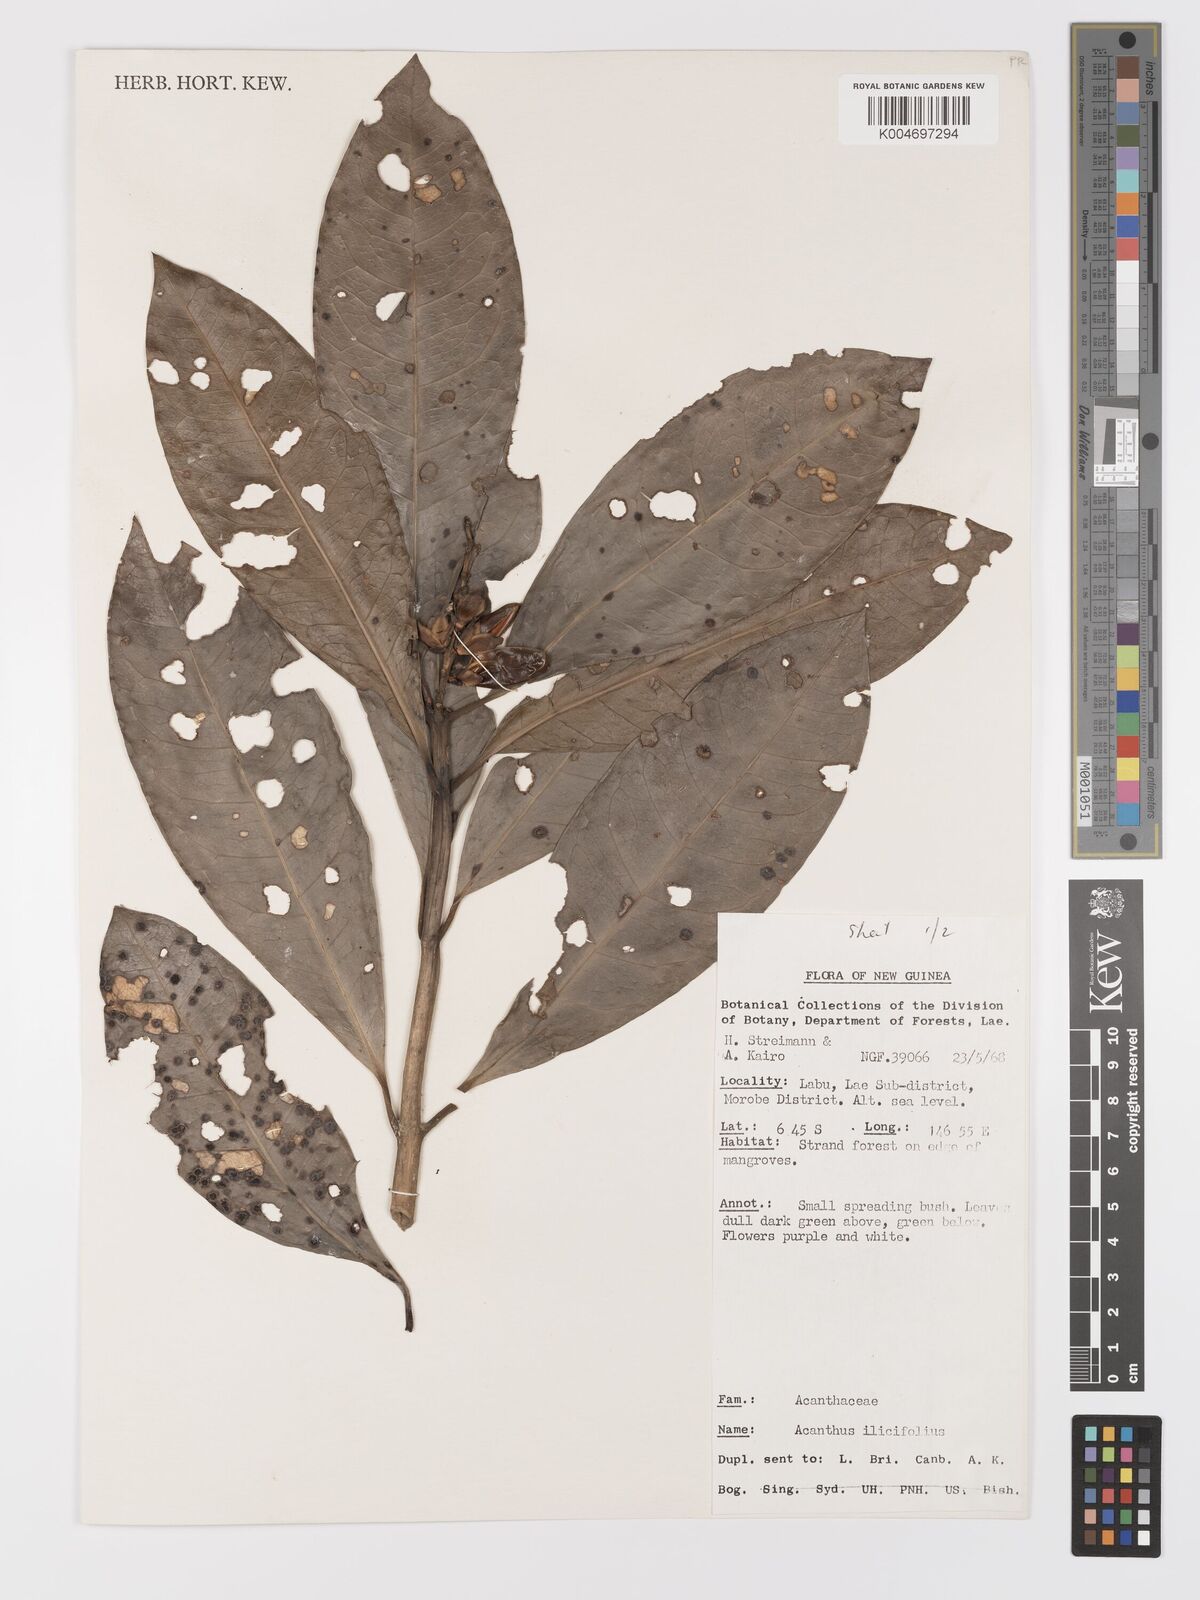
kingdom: Plantae
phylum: Tracheophyta
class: Magnoliopsida
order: Lamiales
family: Acanthaceae
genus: Acanthus
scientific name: Acanthus ilicifolius
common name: Holy mangrove
